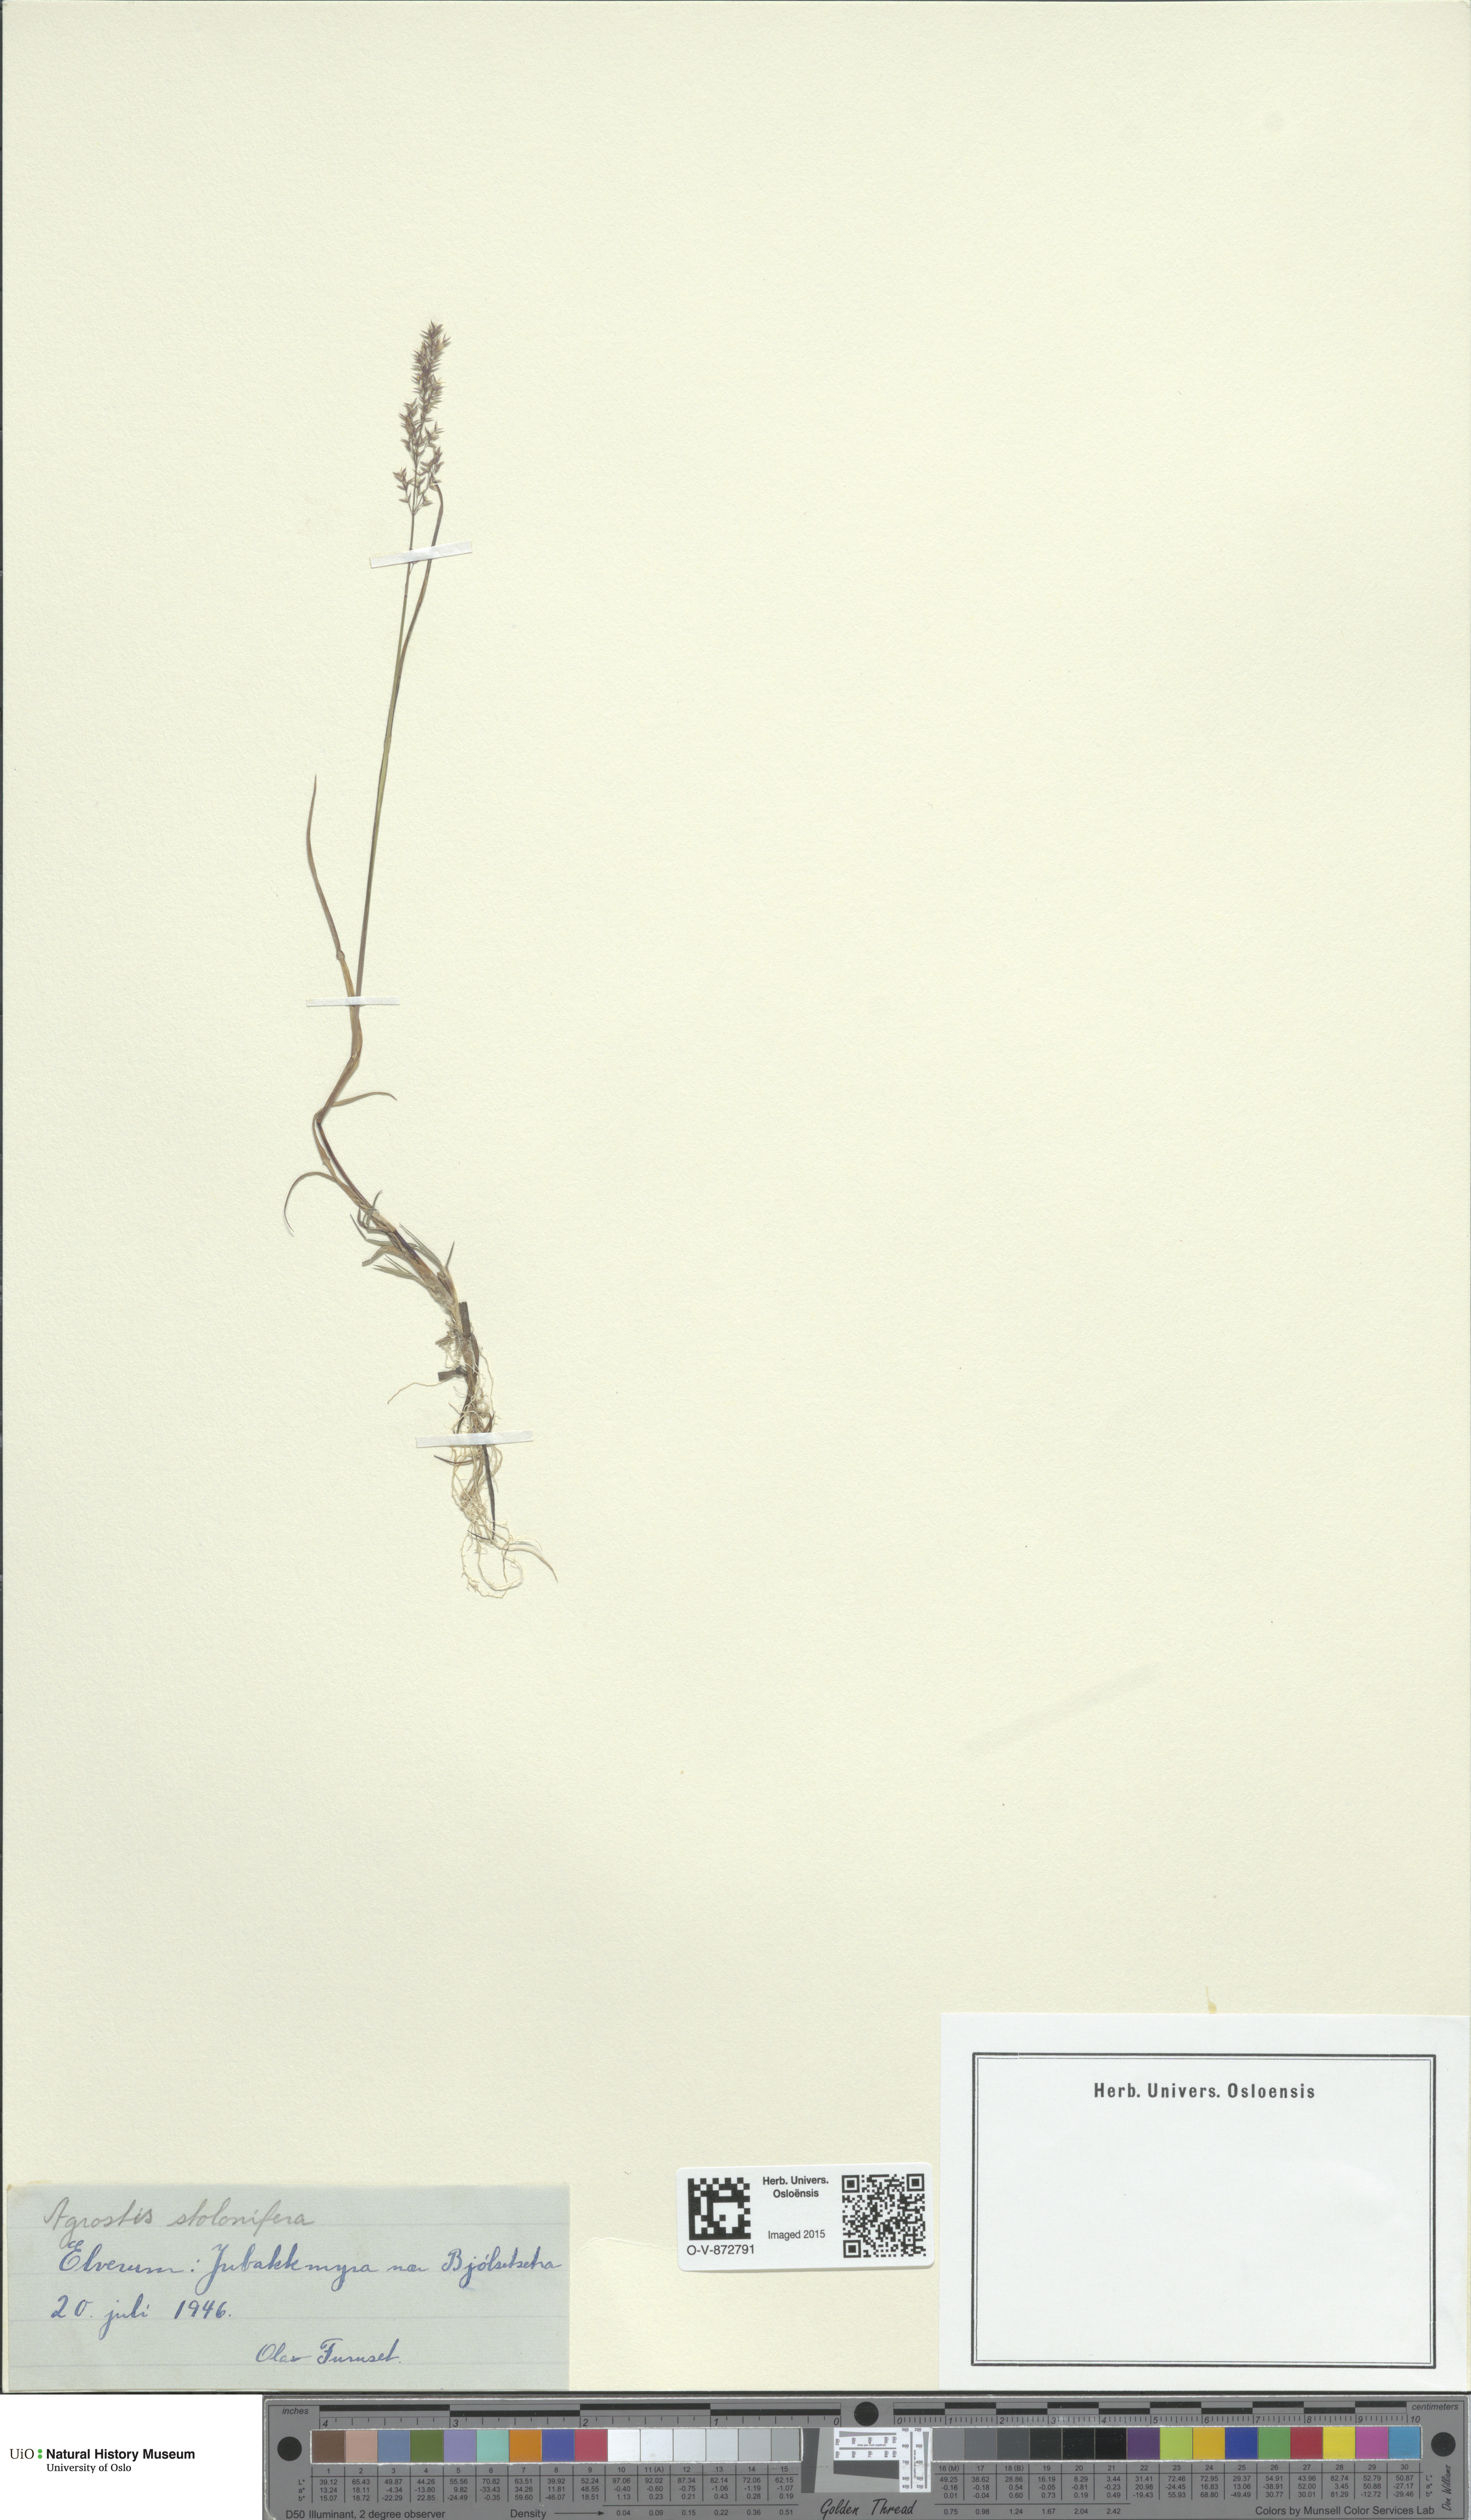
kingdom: Plantae
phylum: Tracheophyta
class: Liliopsida
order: Poales
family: Poaceae
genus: Agrostis
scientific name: Agrostis stolonifera
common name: Creeping bentgrass
